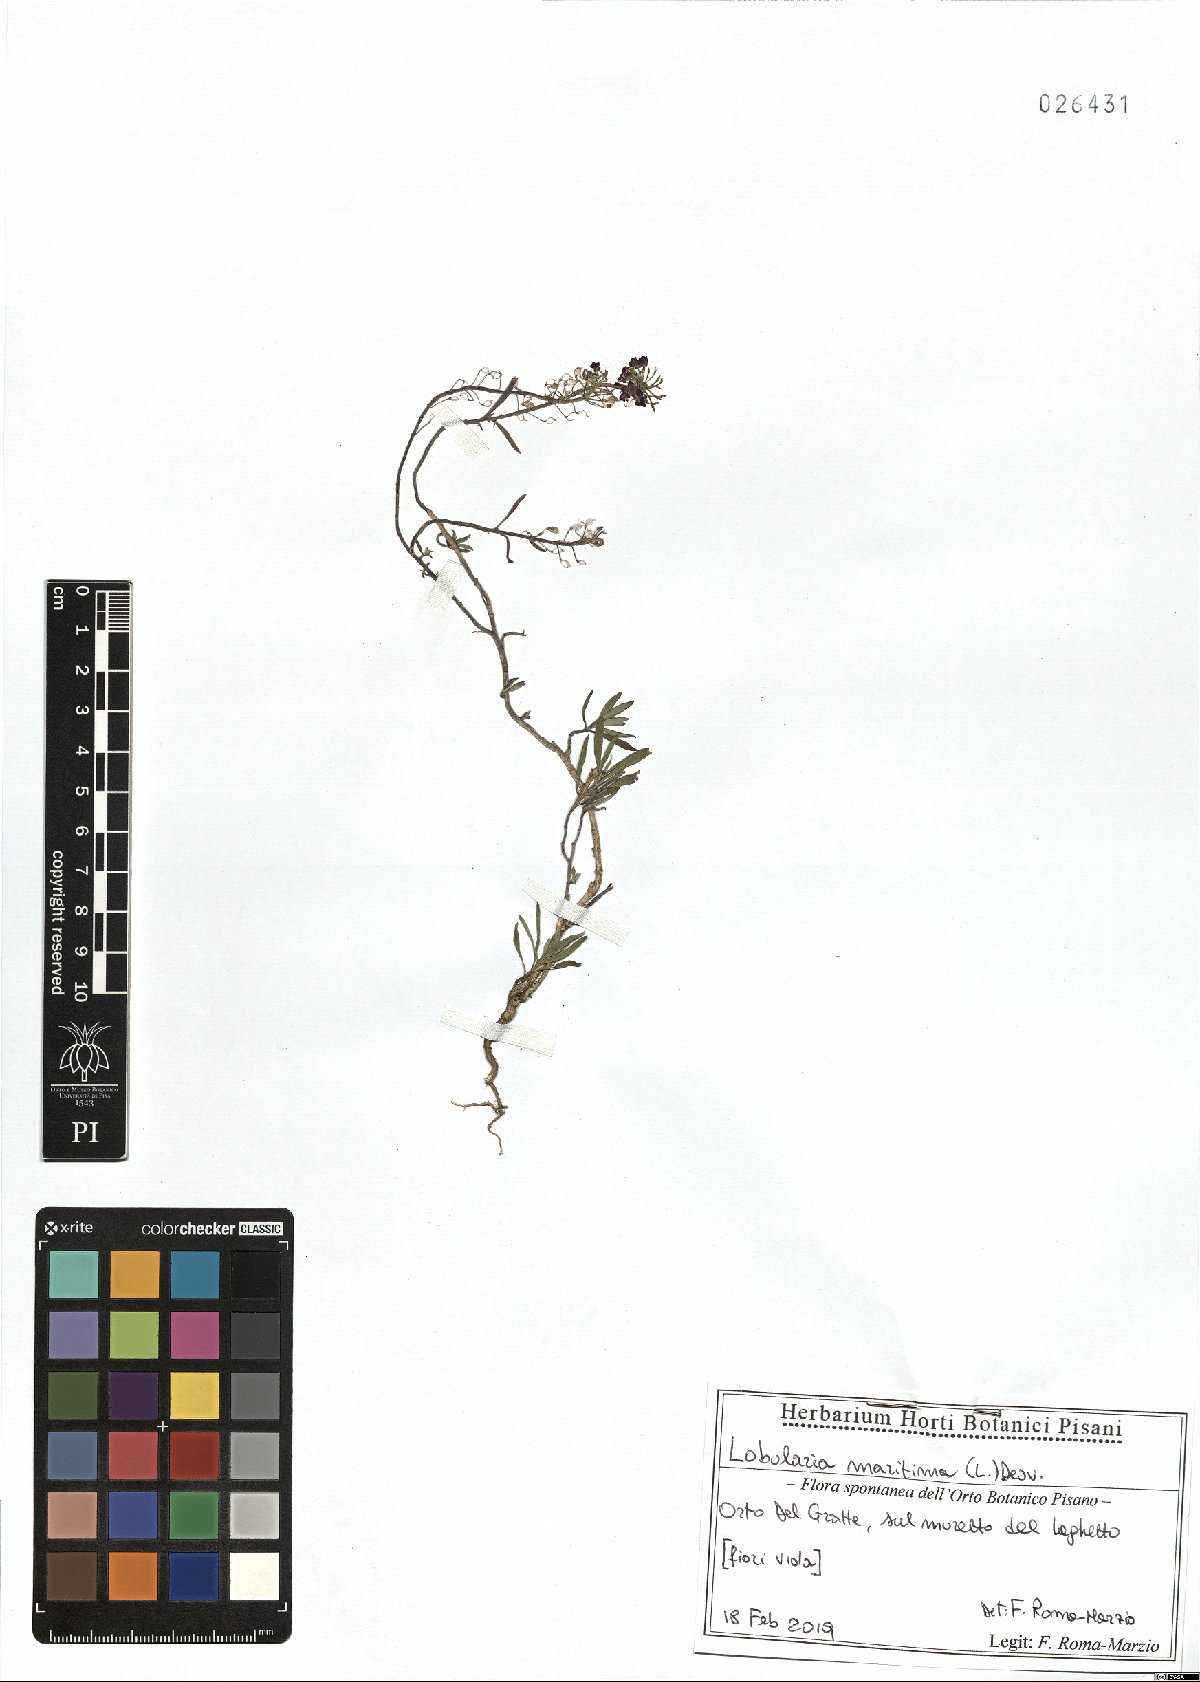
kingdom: Plantae
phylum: Tracheophyta
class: Magnoliopsida
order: Brassicales
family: Brassicaceae
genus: Lobularia
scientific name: Lobularia maritima
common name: Sweet alison
